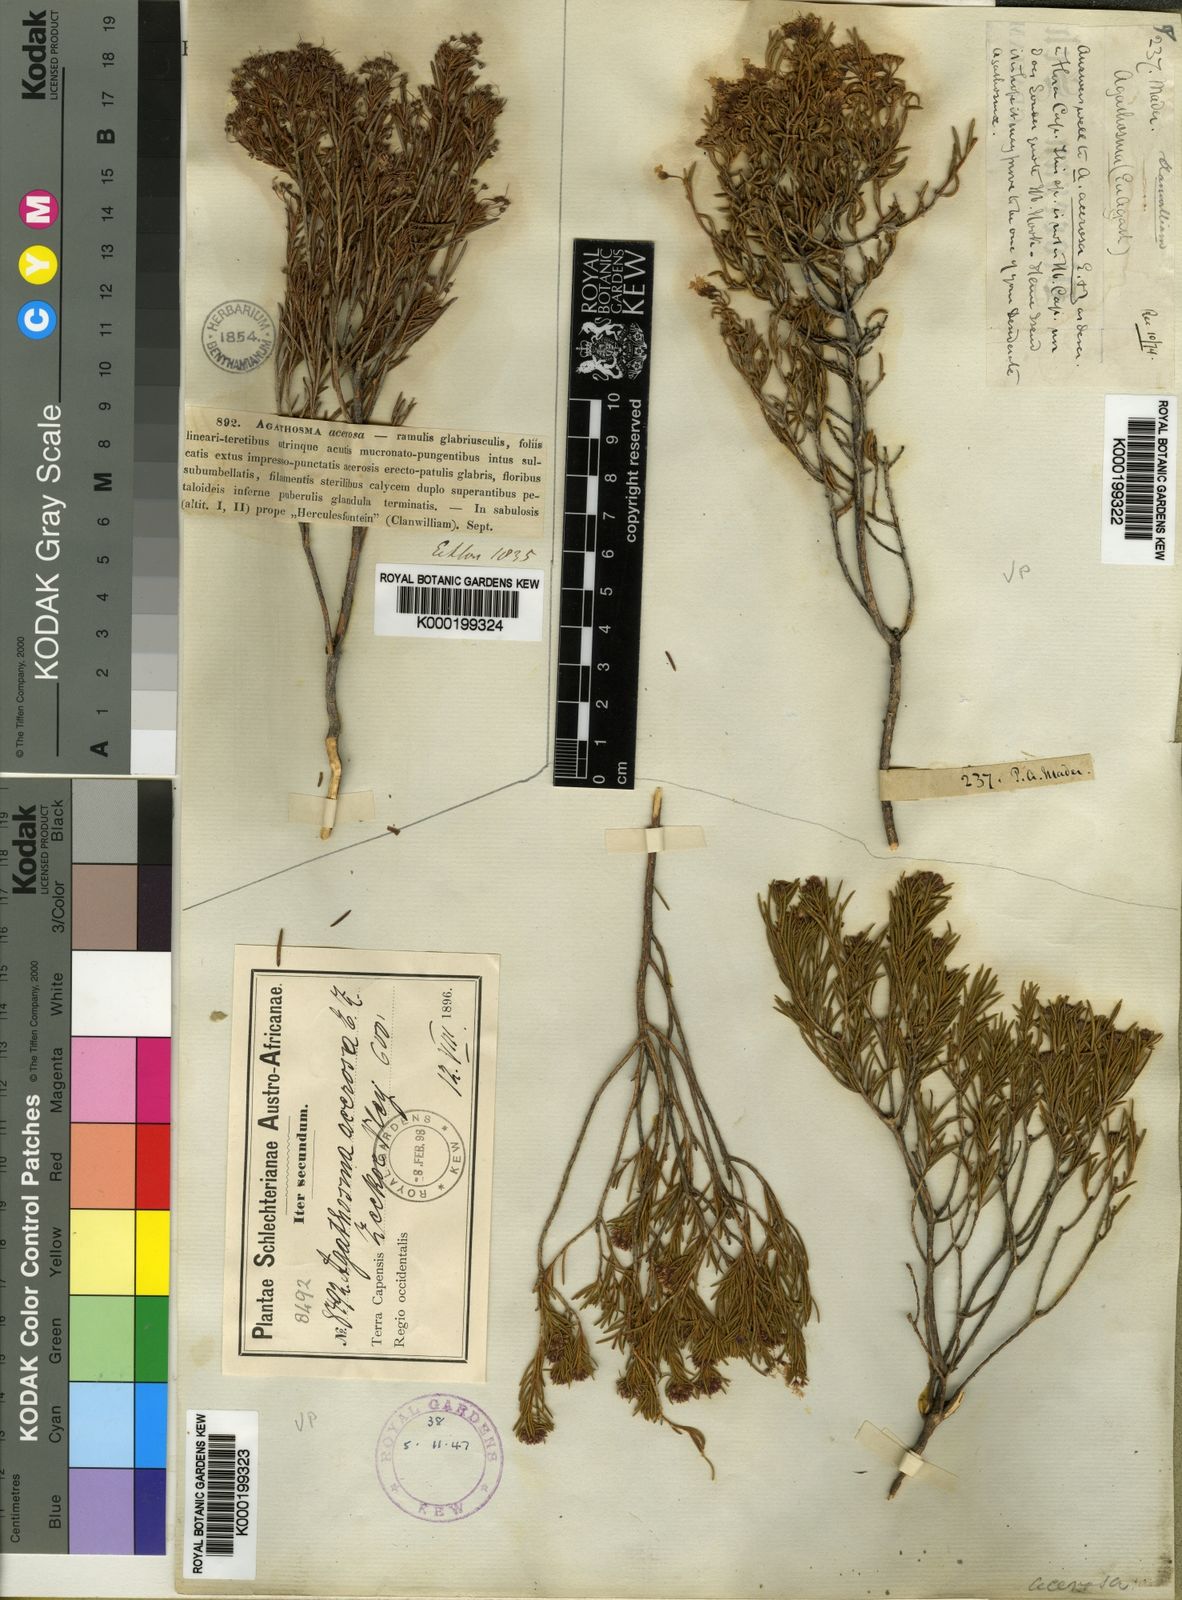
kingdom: Plantae
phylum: Tracheophyta
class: Magnoliopsida
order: Sapindales
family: Rutaceae
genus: Agathosma
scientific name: Agathosma bisulca
